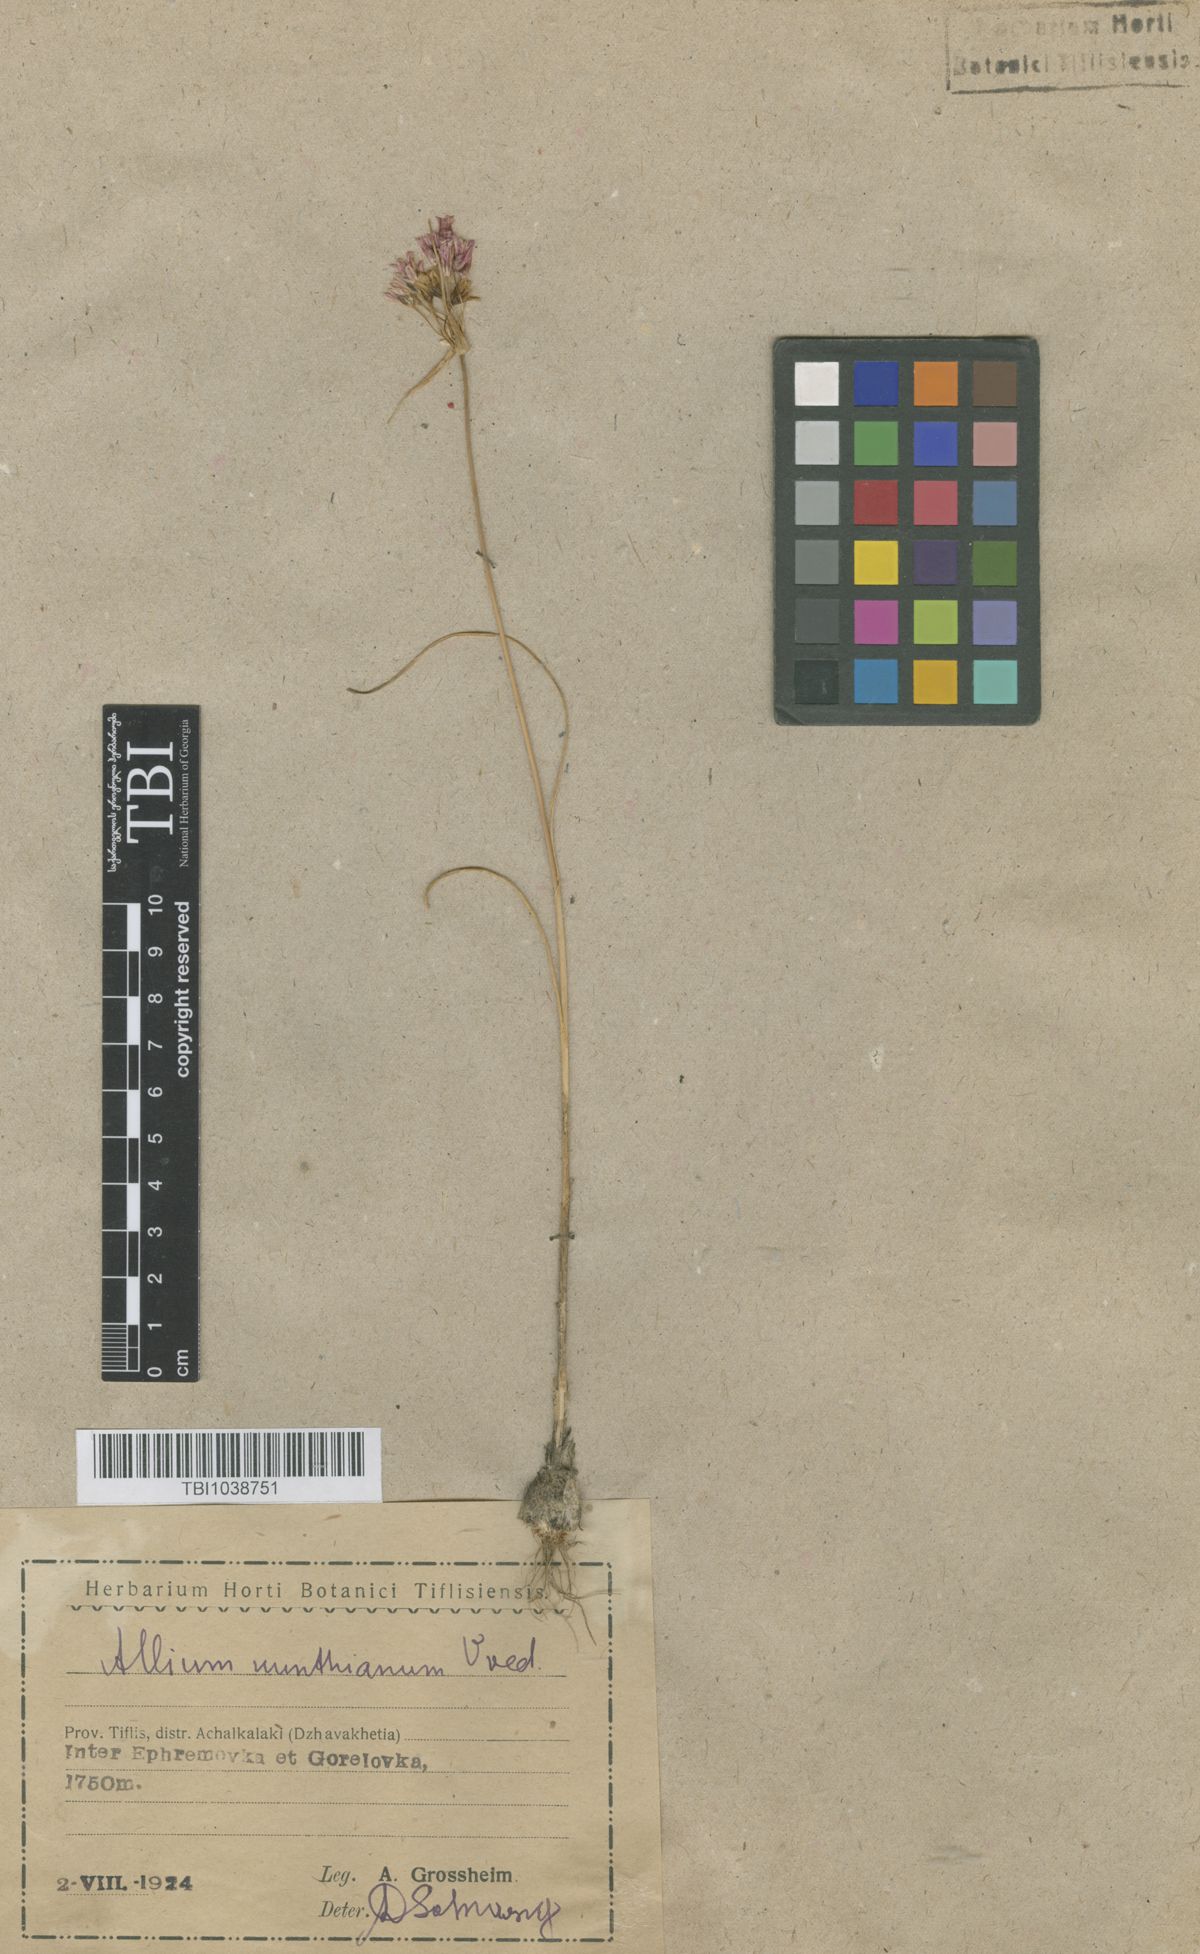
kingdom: Plantae
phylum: Tracheophyta
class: Liliopsida
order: Asparagales
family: Amaryllidaceae
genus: Allium
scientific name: Allium kunthianum
